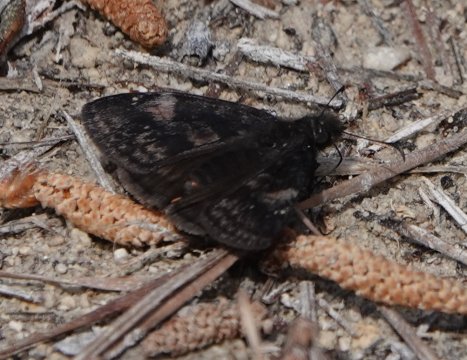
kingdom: Animalia
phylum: Arthropoda
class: Insecta
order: Lepidoptera
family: Hesperiidae
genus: Gesta
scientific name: Gesta
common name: Juvenal's Duskywing
